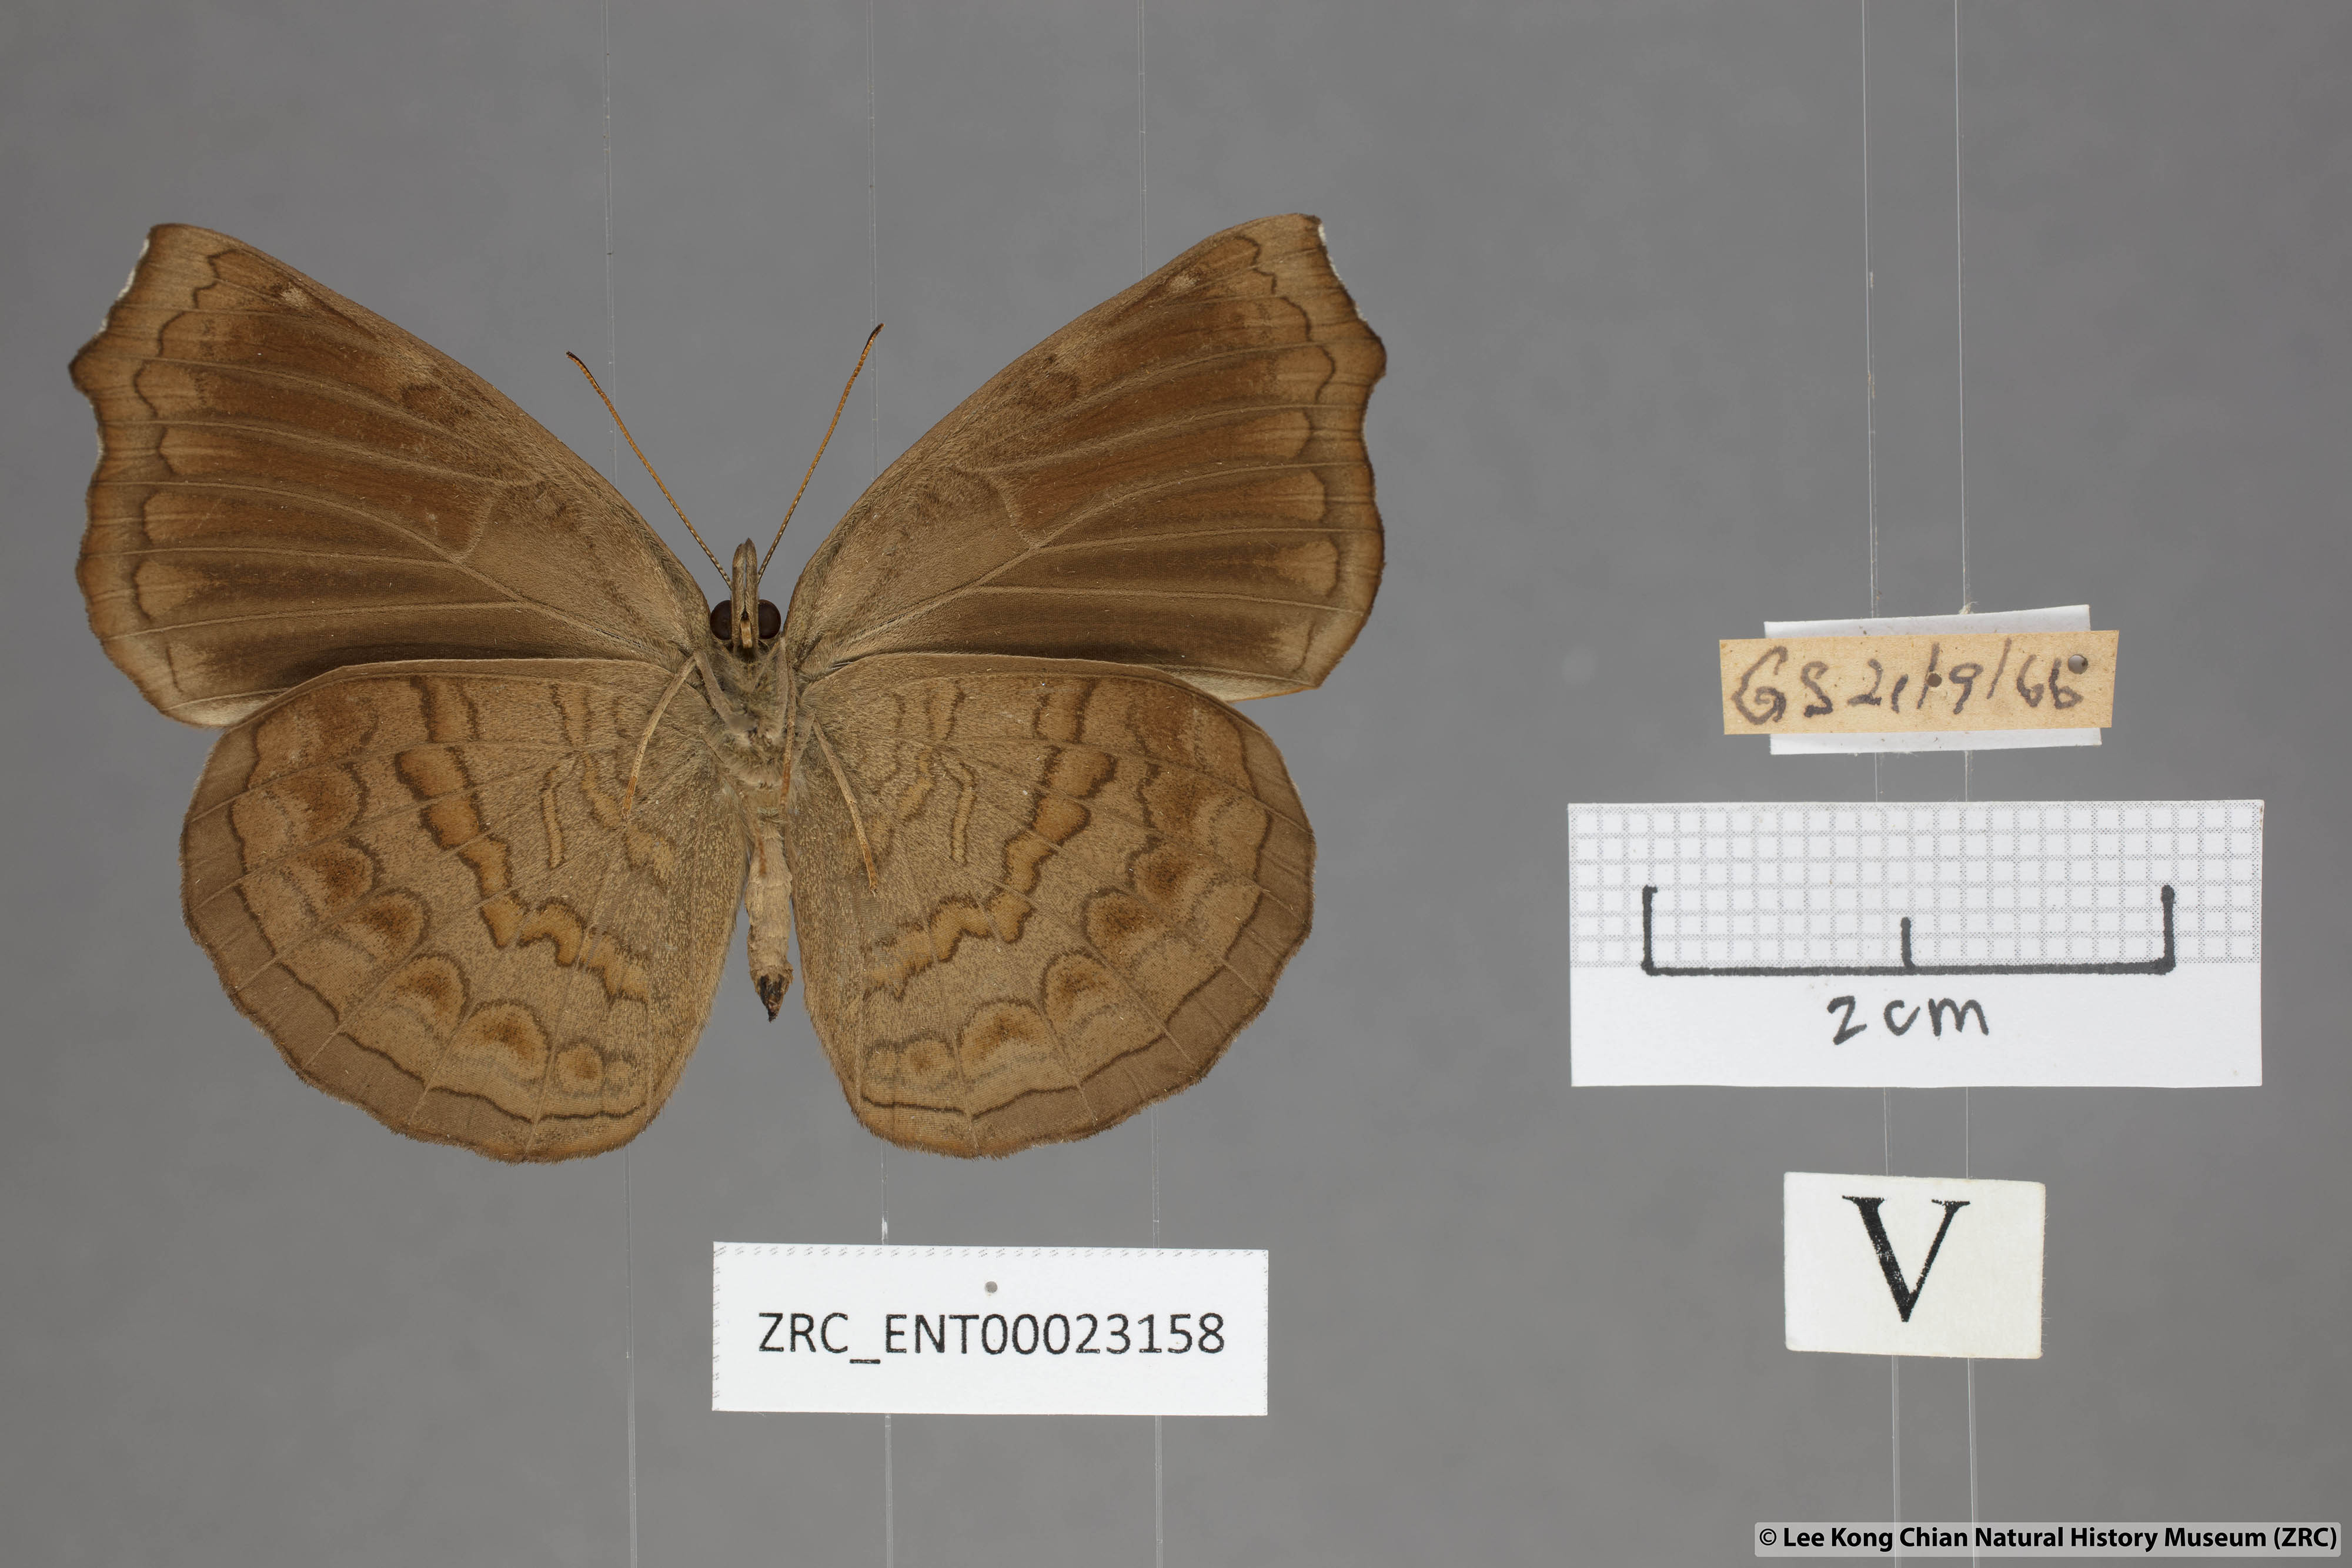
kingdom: Animalia
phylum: Arthropoda
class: Insecta
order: Lepidoptera
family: Nymphalidae
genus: Ariadne
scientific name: Ariadne isaeus
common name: Malayan castor
